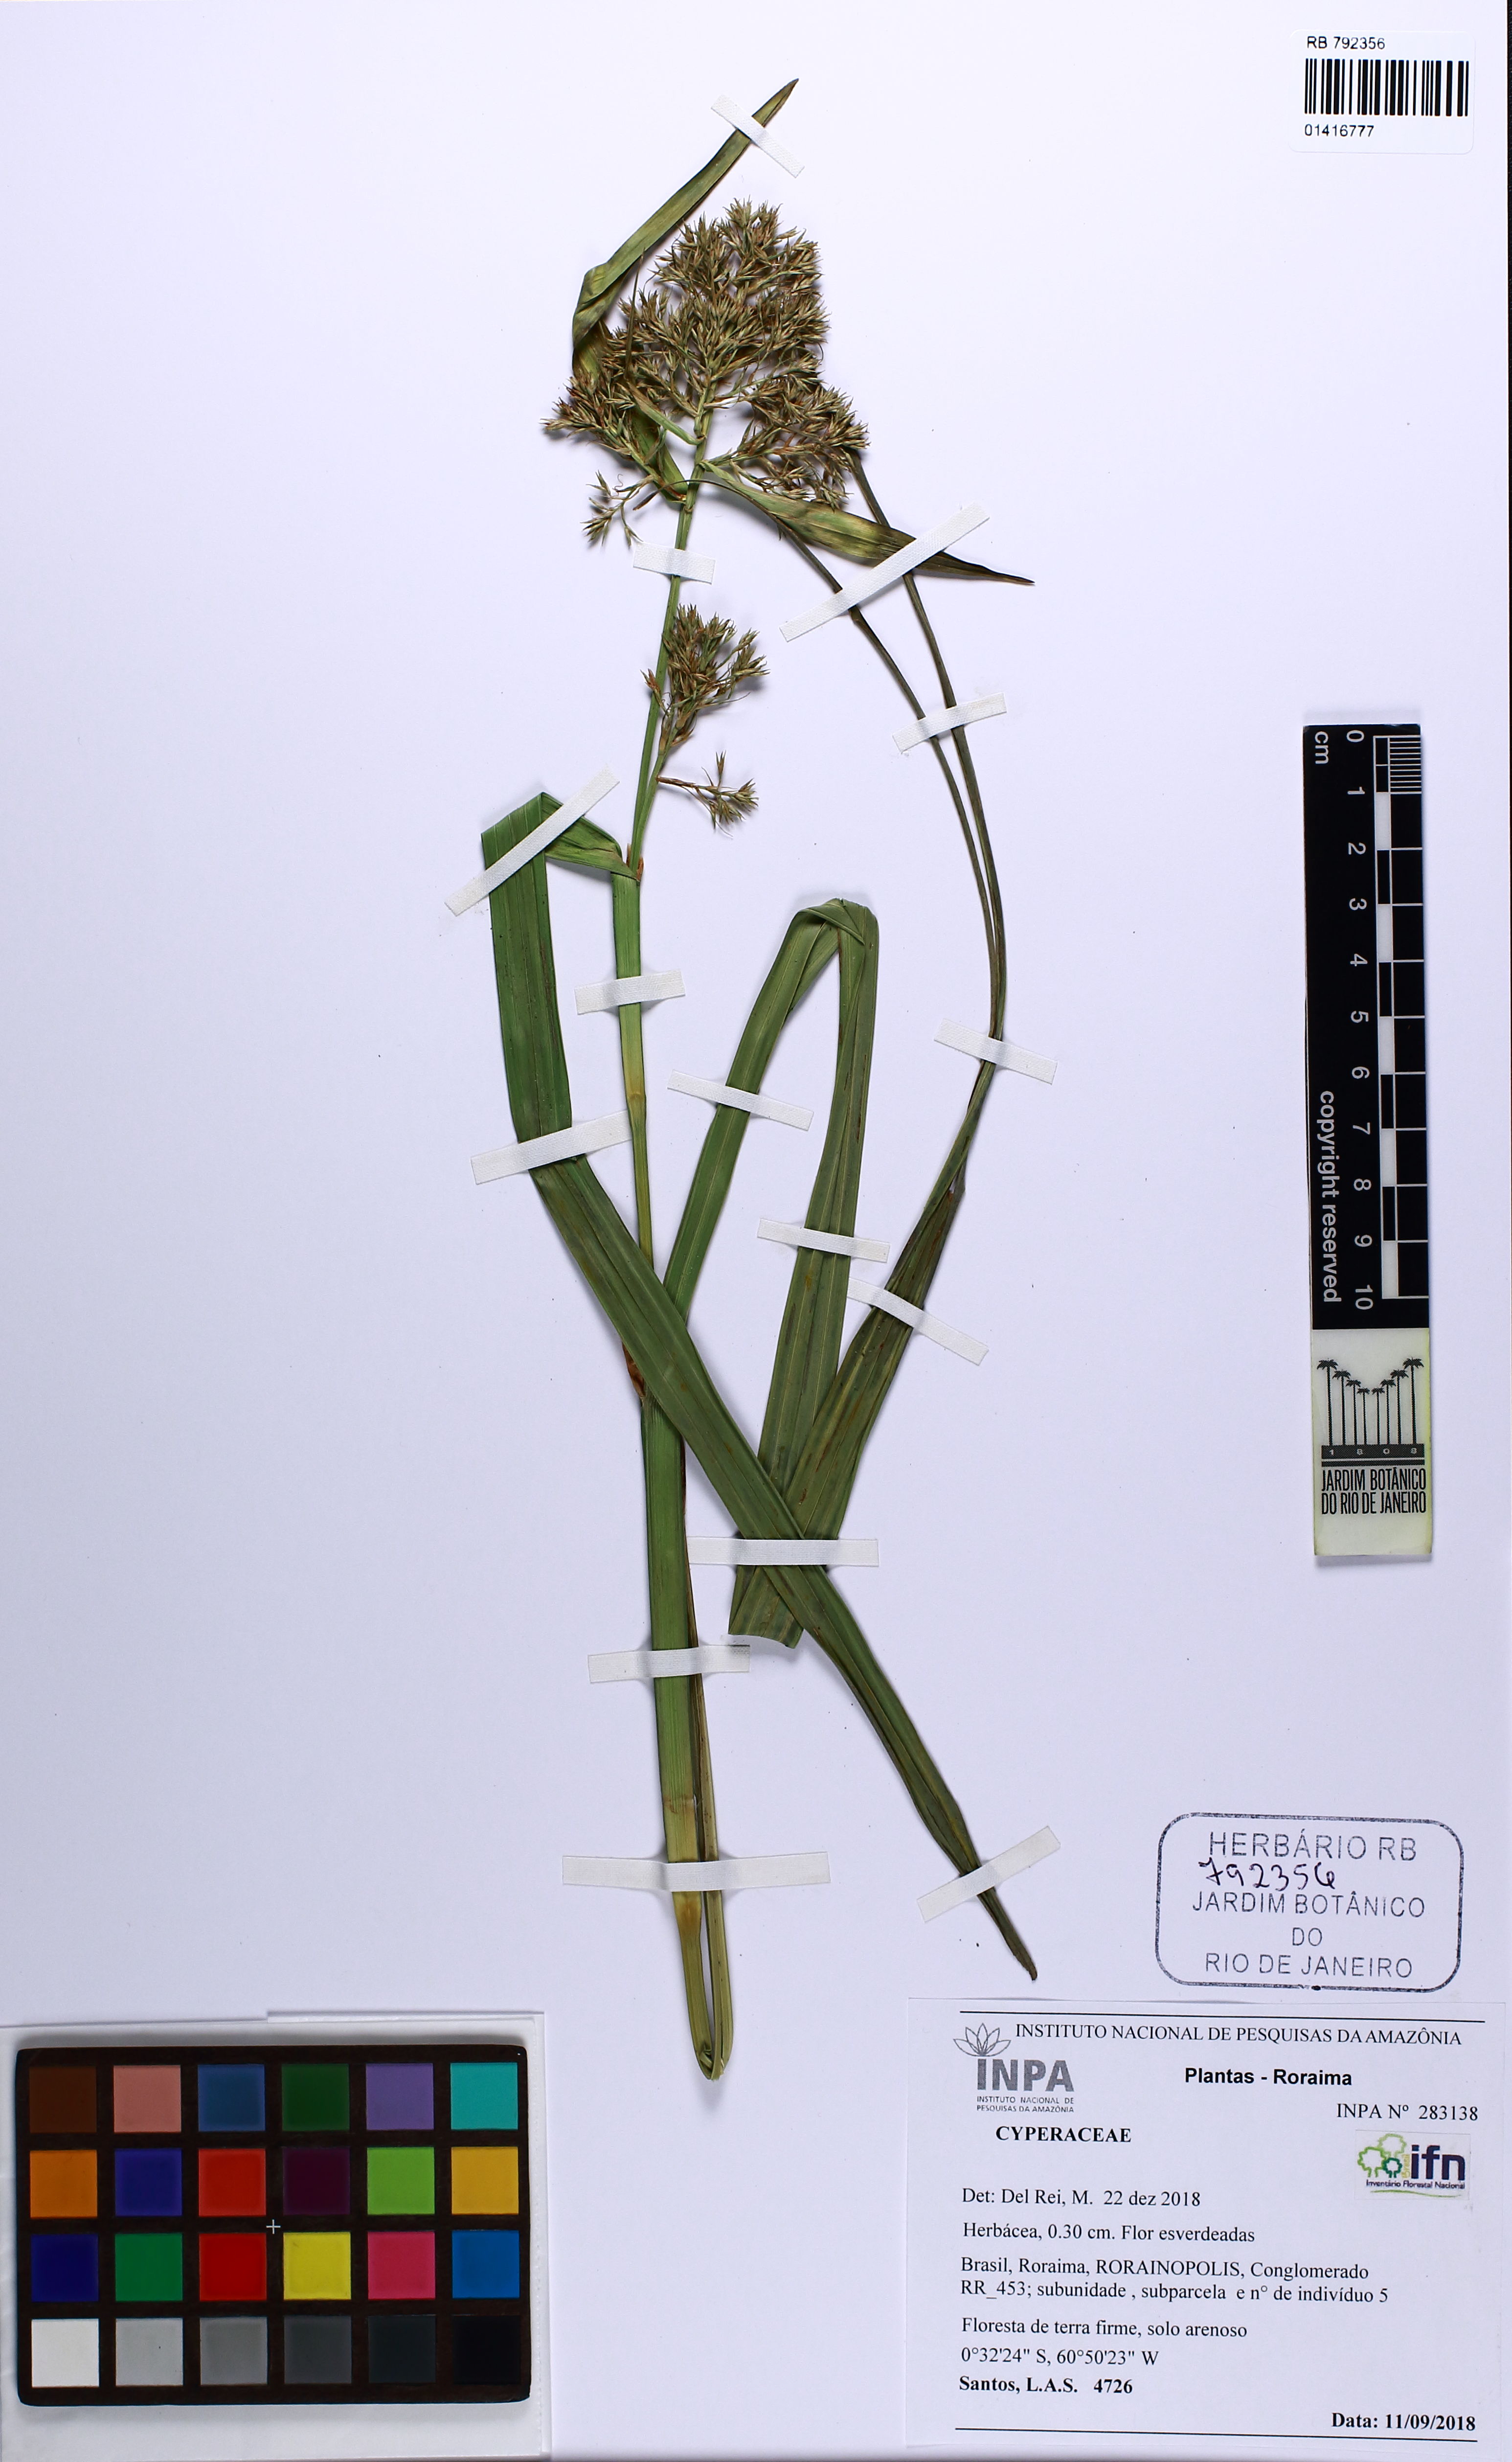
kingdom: Plantae
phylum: Tracheophyta
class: Liliopsida
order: Poales
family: Cyperaceae
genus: Scleria
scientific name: Scleria
